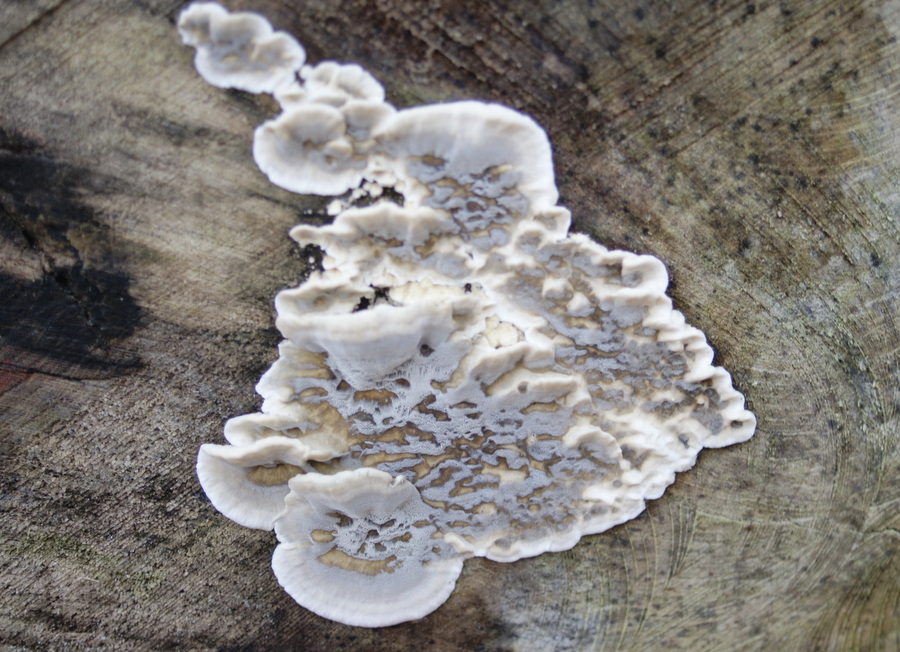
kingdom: Fungi
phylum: Basidiomycota
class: Agaricomycetes
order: Polyporales
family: Phanerochaetaceae
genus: Bjerkandera
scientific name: Bjerkandera adusta
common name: sveden sodporesvamp
